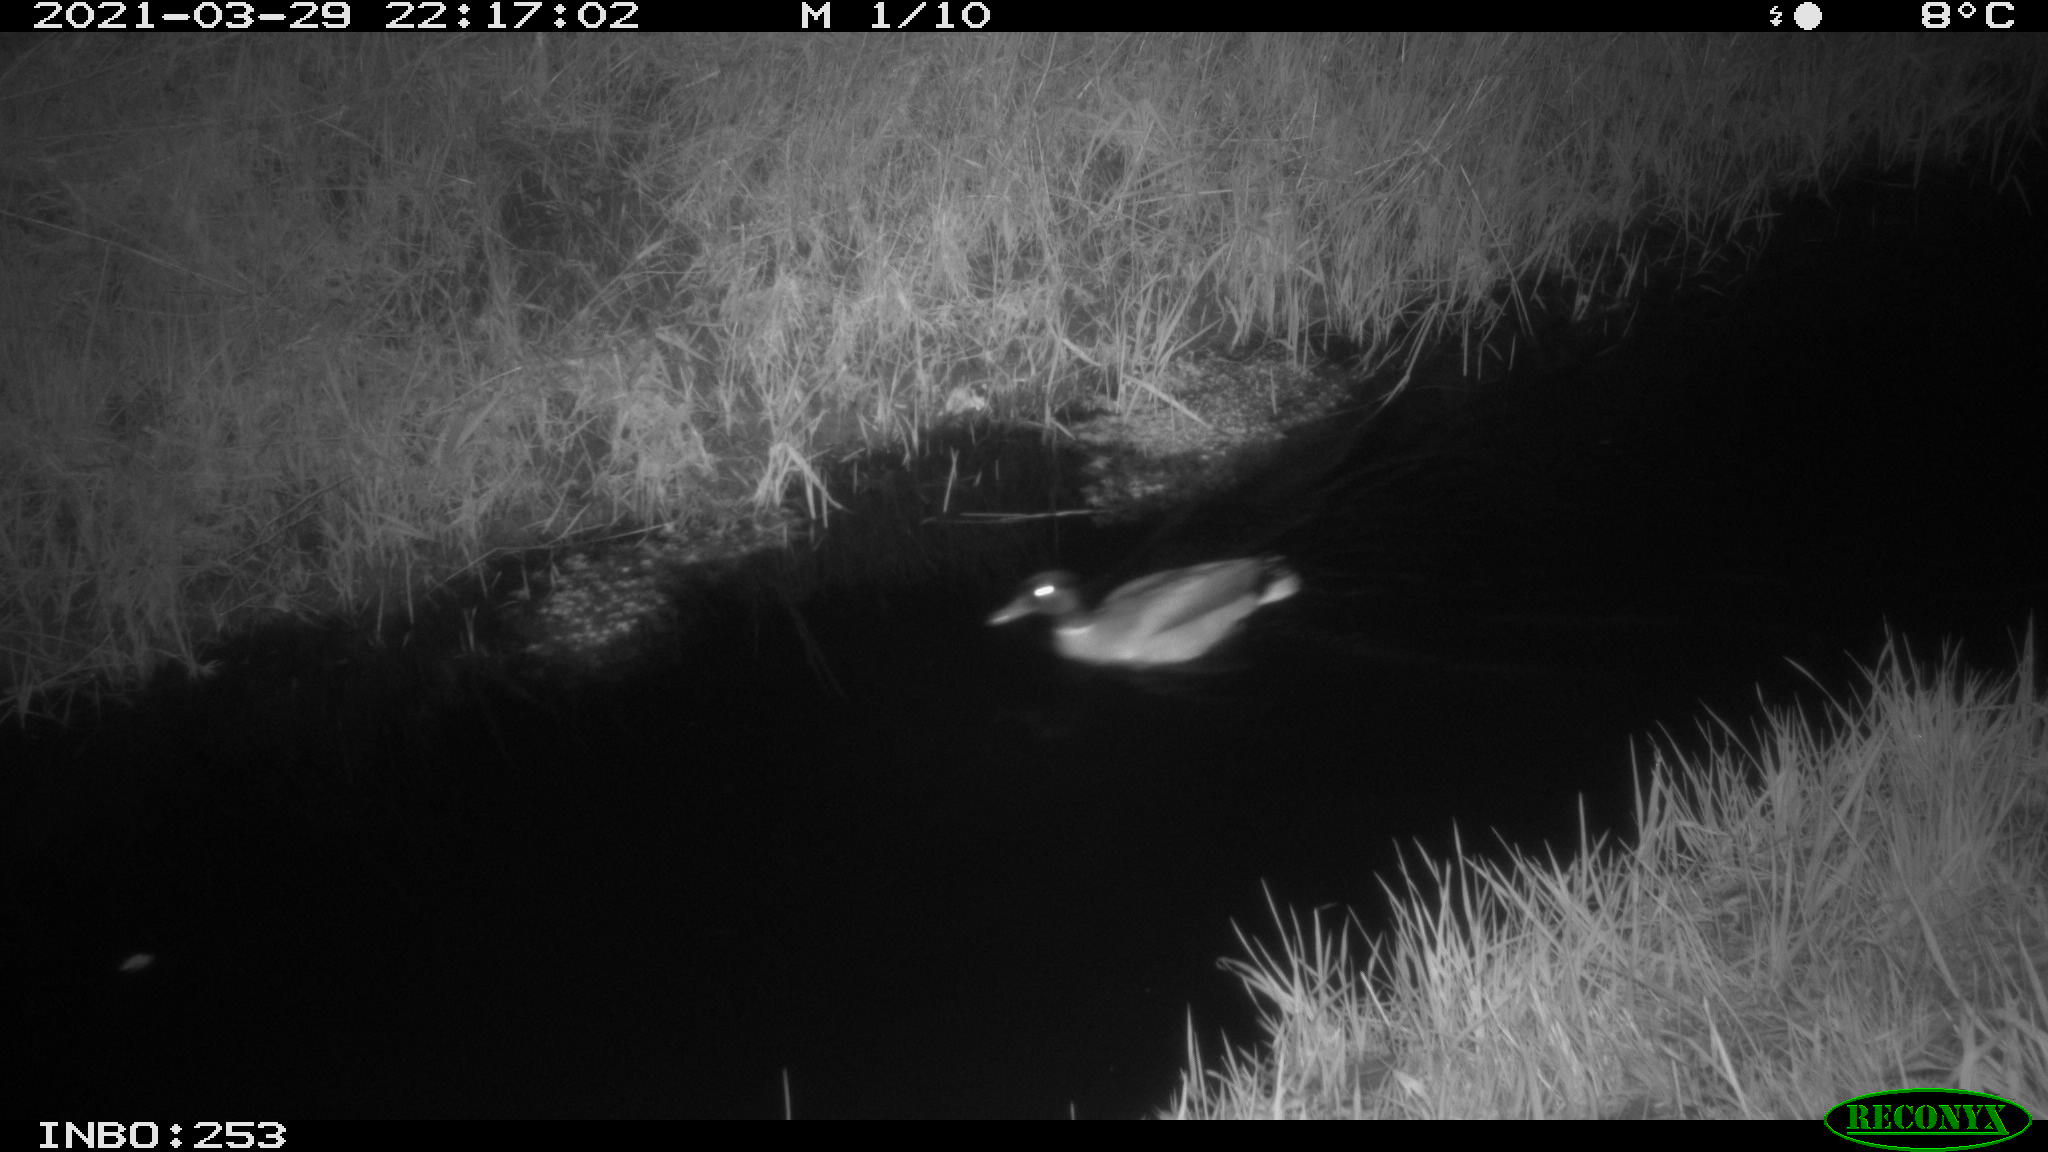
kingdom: Animalia
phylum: Chordata
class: Aves
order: Anseriformes
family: Anatidae
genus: Anas
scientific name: Anas platyrhynchos
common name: Mallard
